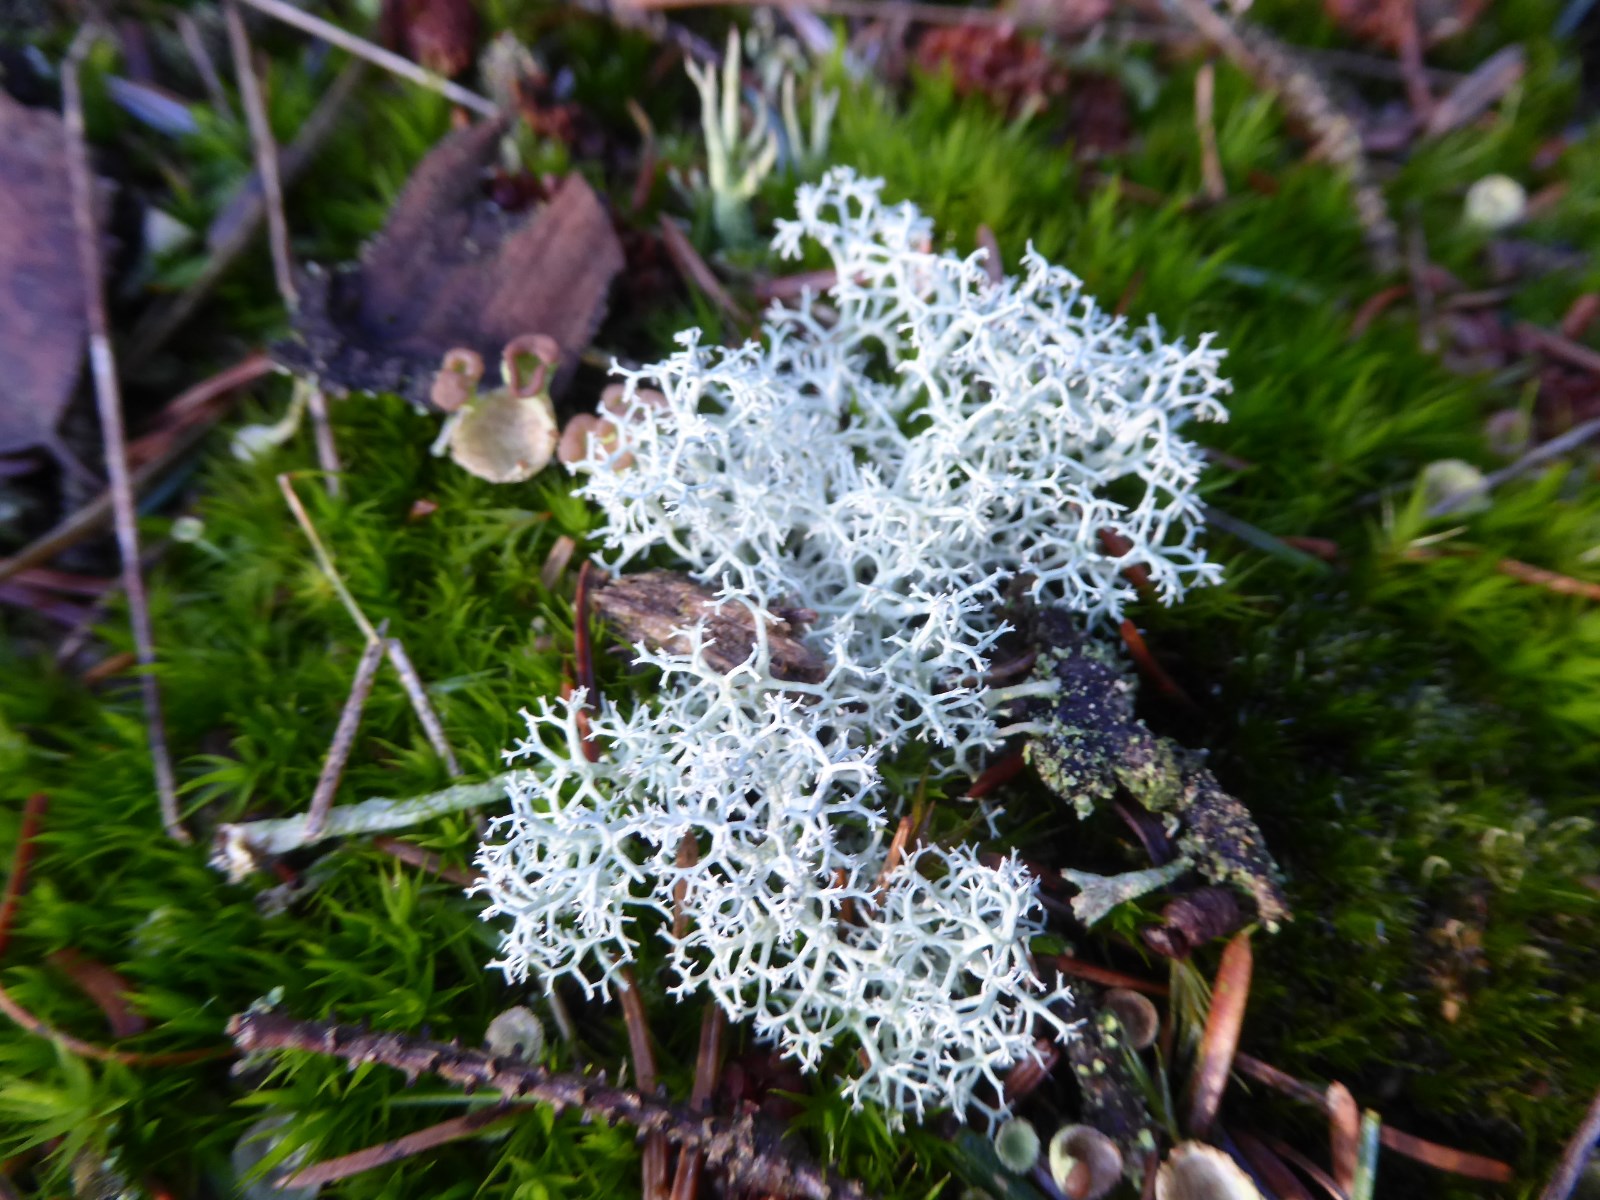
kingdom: Fungi
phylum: Ascomycota
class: Lecanoromycetes
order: Lecanorales
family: Cladoniaceae
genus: Cladonia
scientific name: Cladonia portentosa
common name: hede-rensdyrlav
